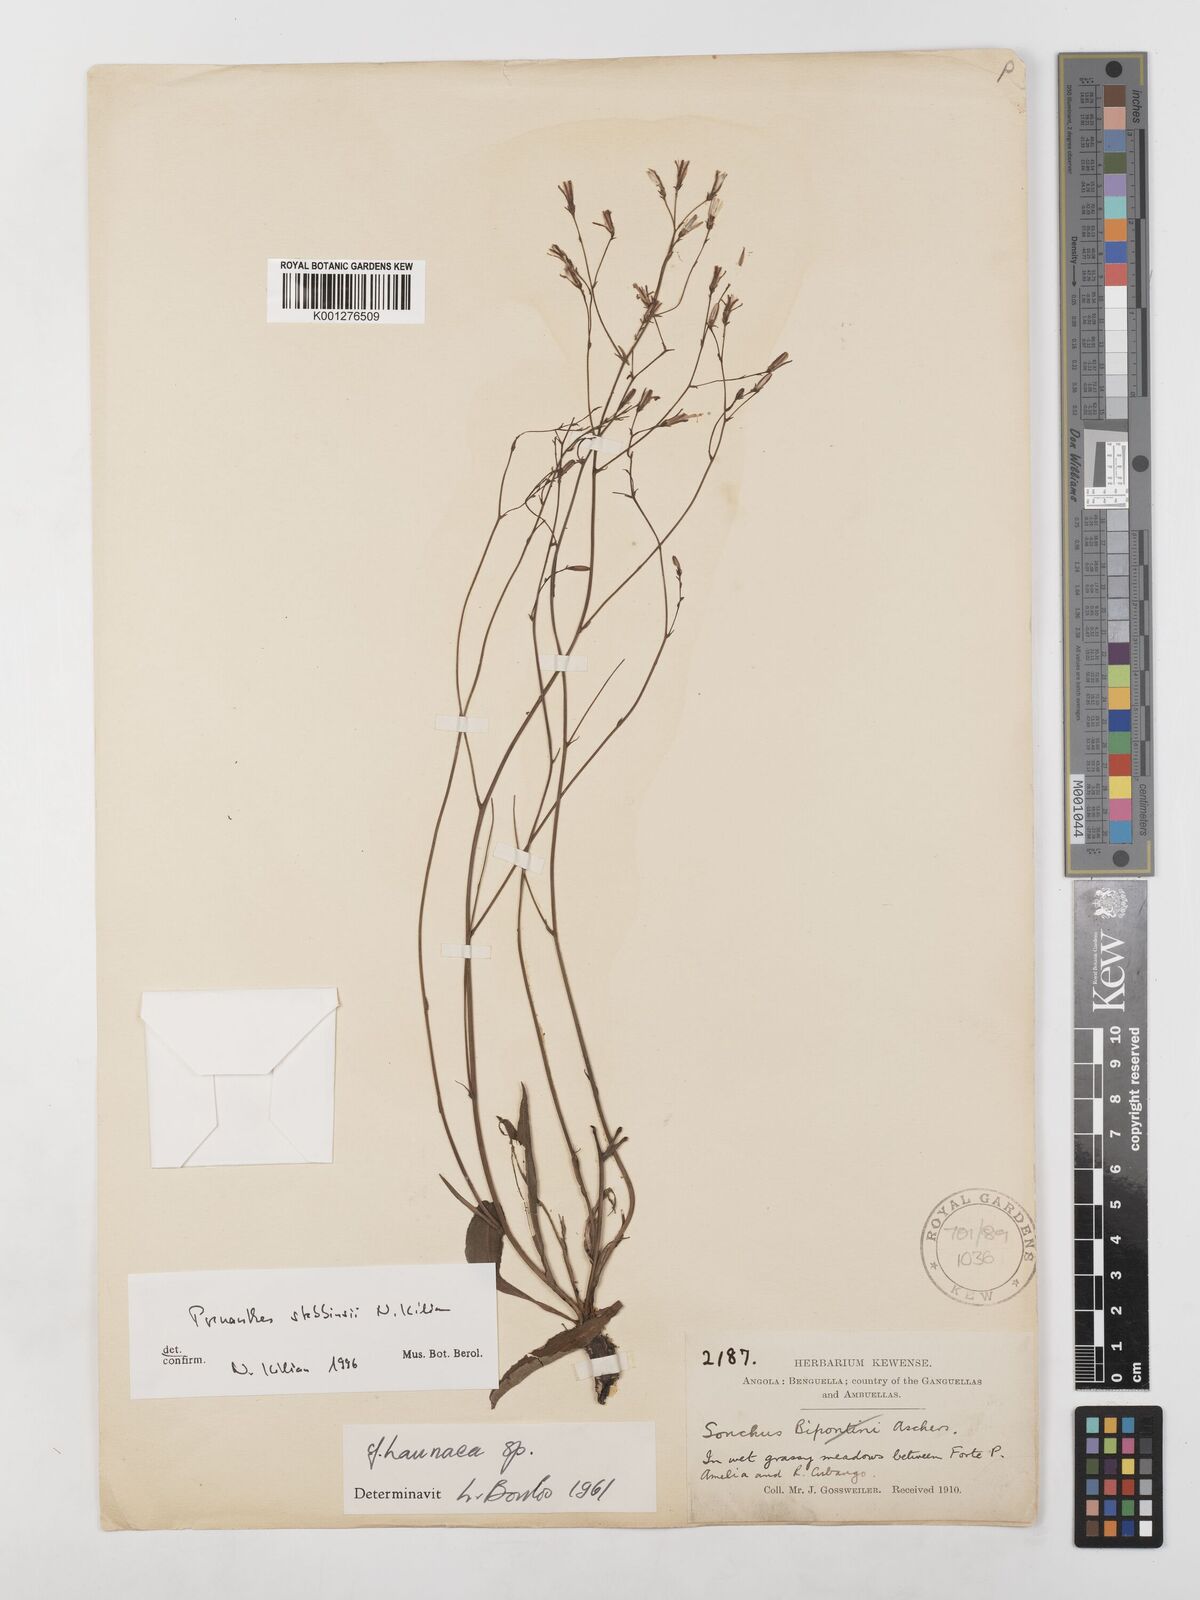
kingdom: Plantae
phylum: Tracheophyta
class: Magnoliopsida
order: Asterales
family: Asteraceae
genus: Prenanthes
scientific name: Prenanthes
